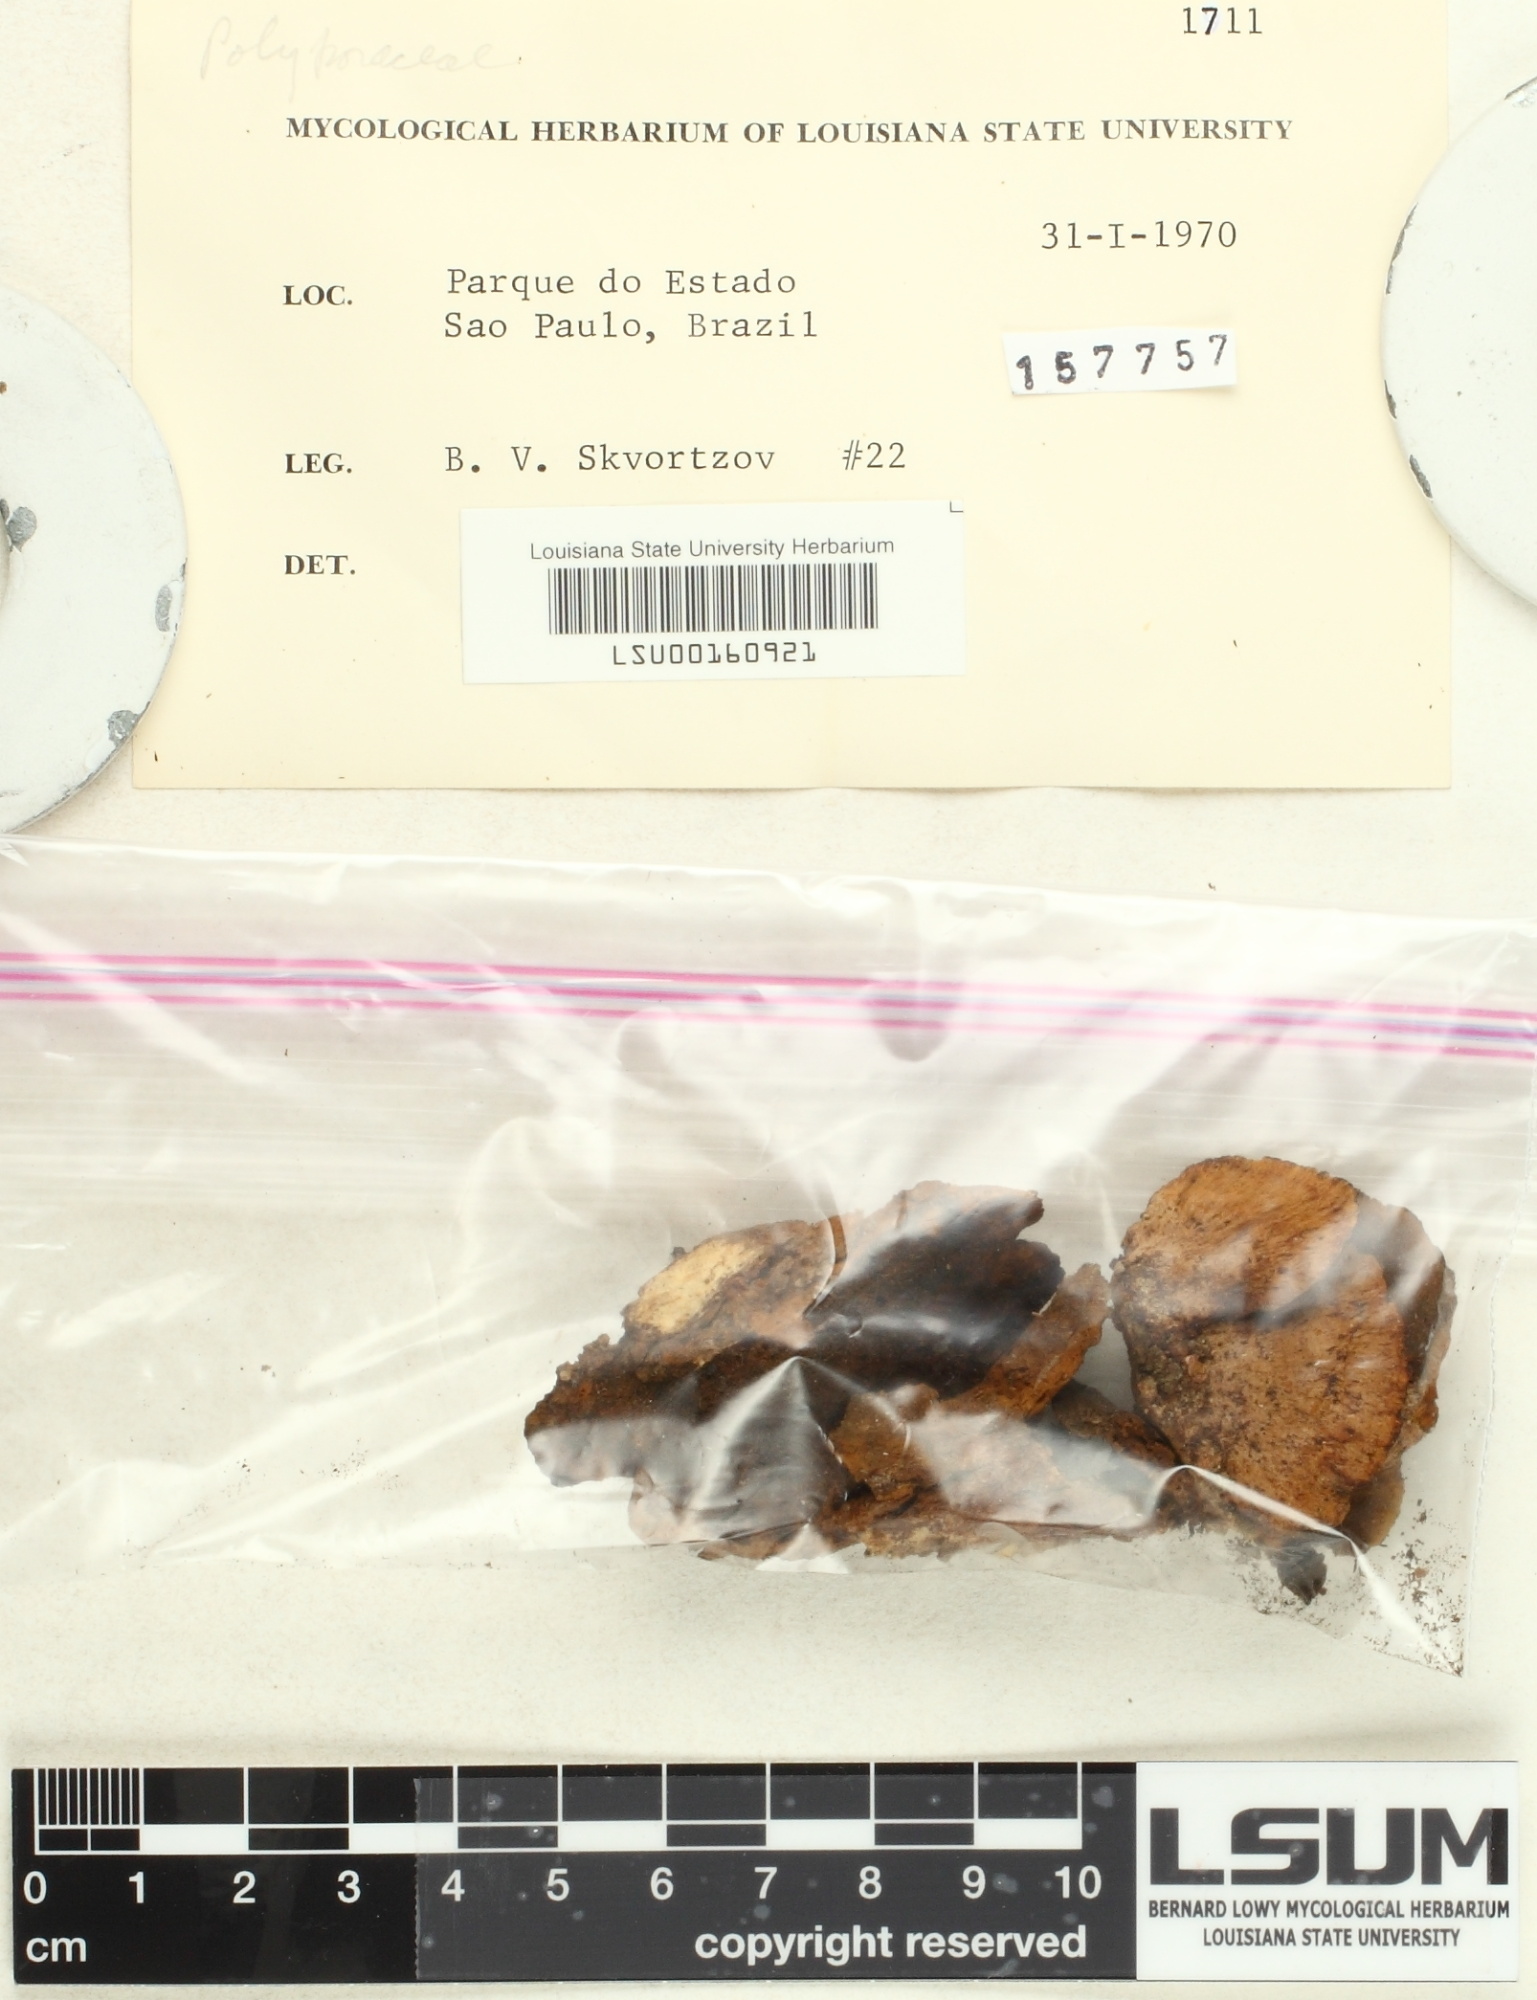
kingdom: Fungi
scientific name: Fungi
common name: Fungi
